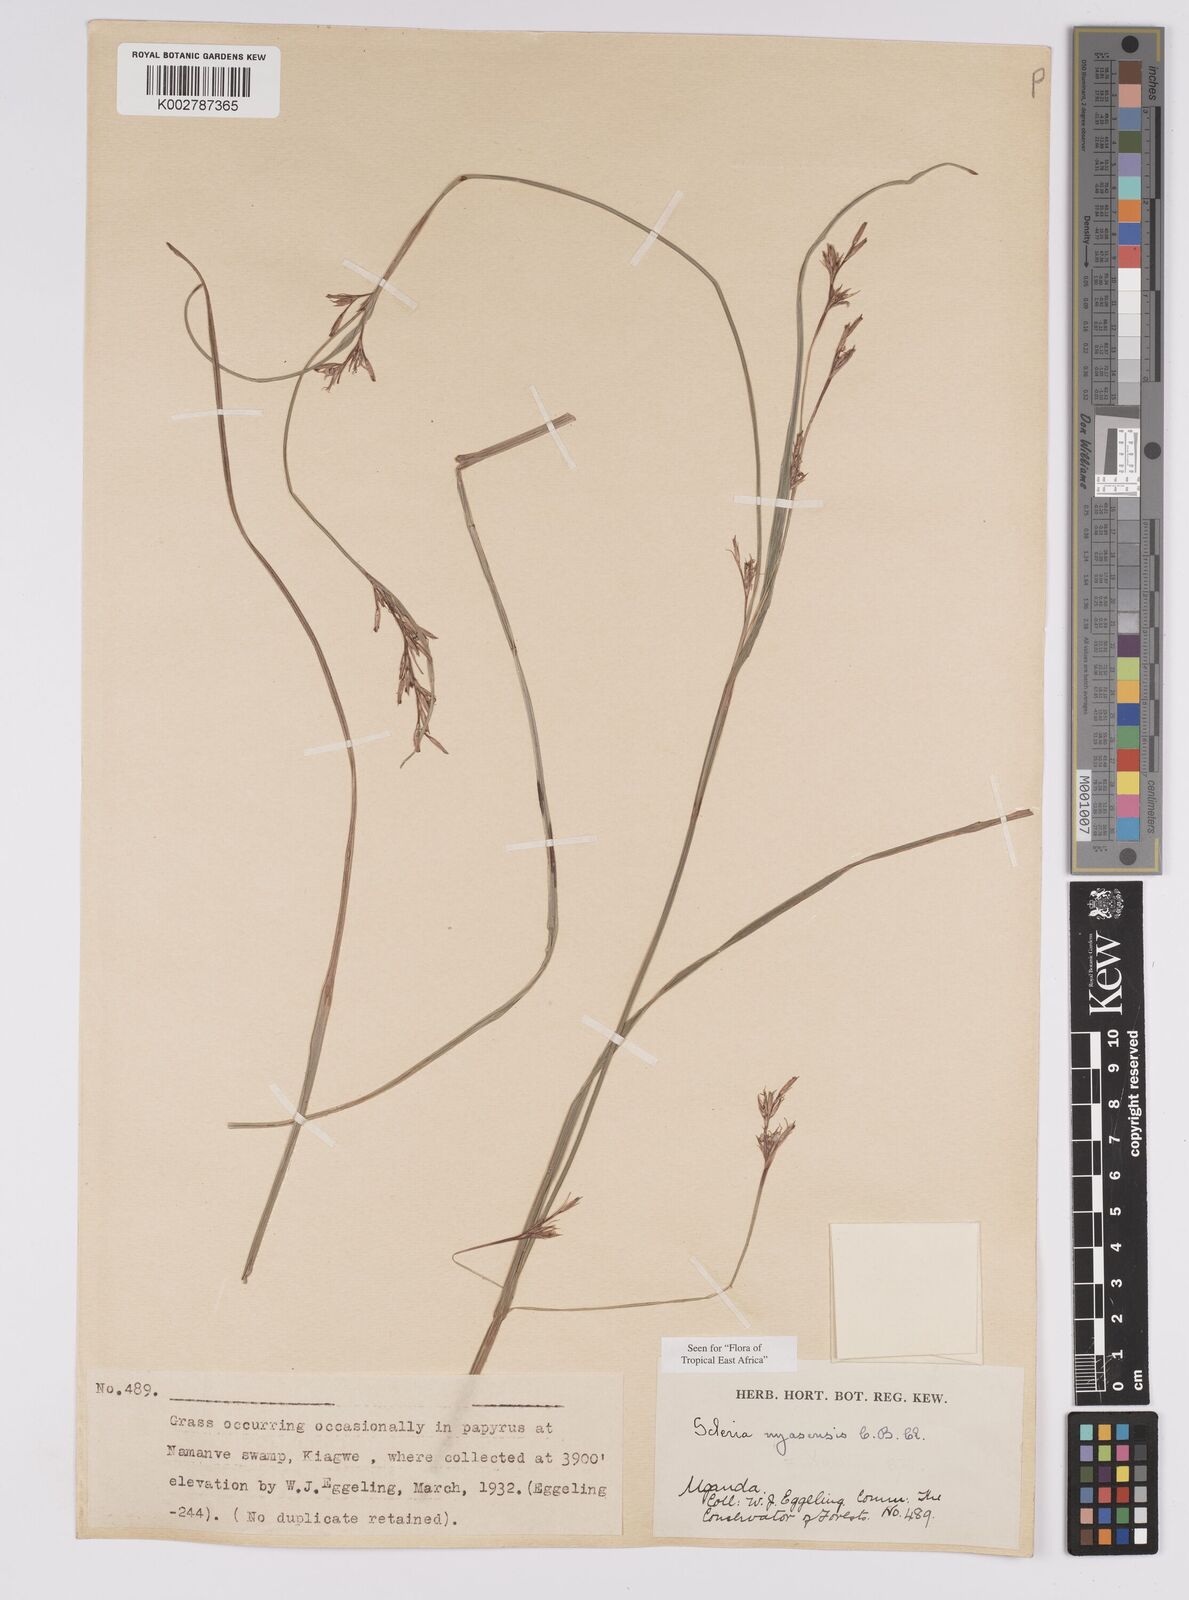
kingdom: Plantae
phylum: Tracheophyta
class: Liliopsida
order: Poales
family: Cyperaceae
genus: Scleria
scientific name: Scleria nyasensis
